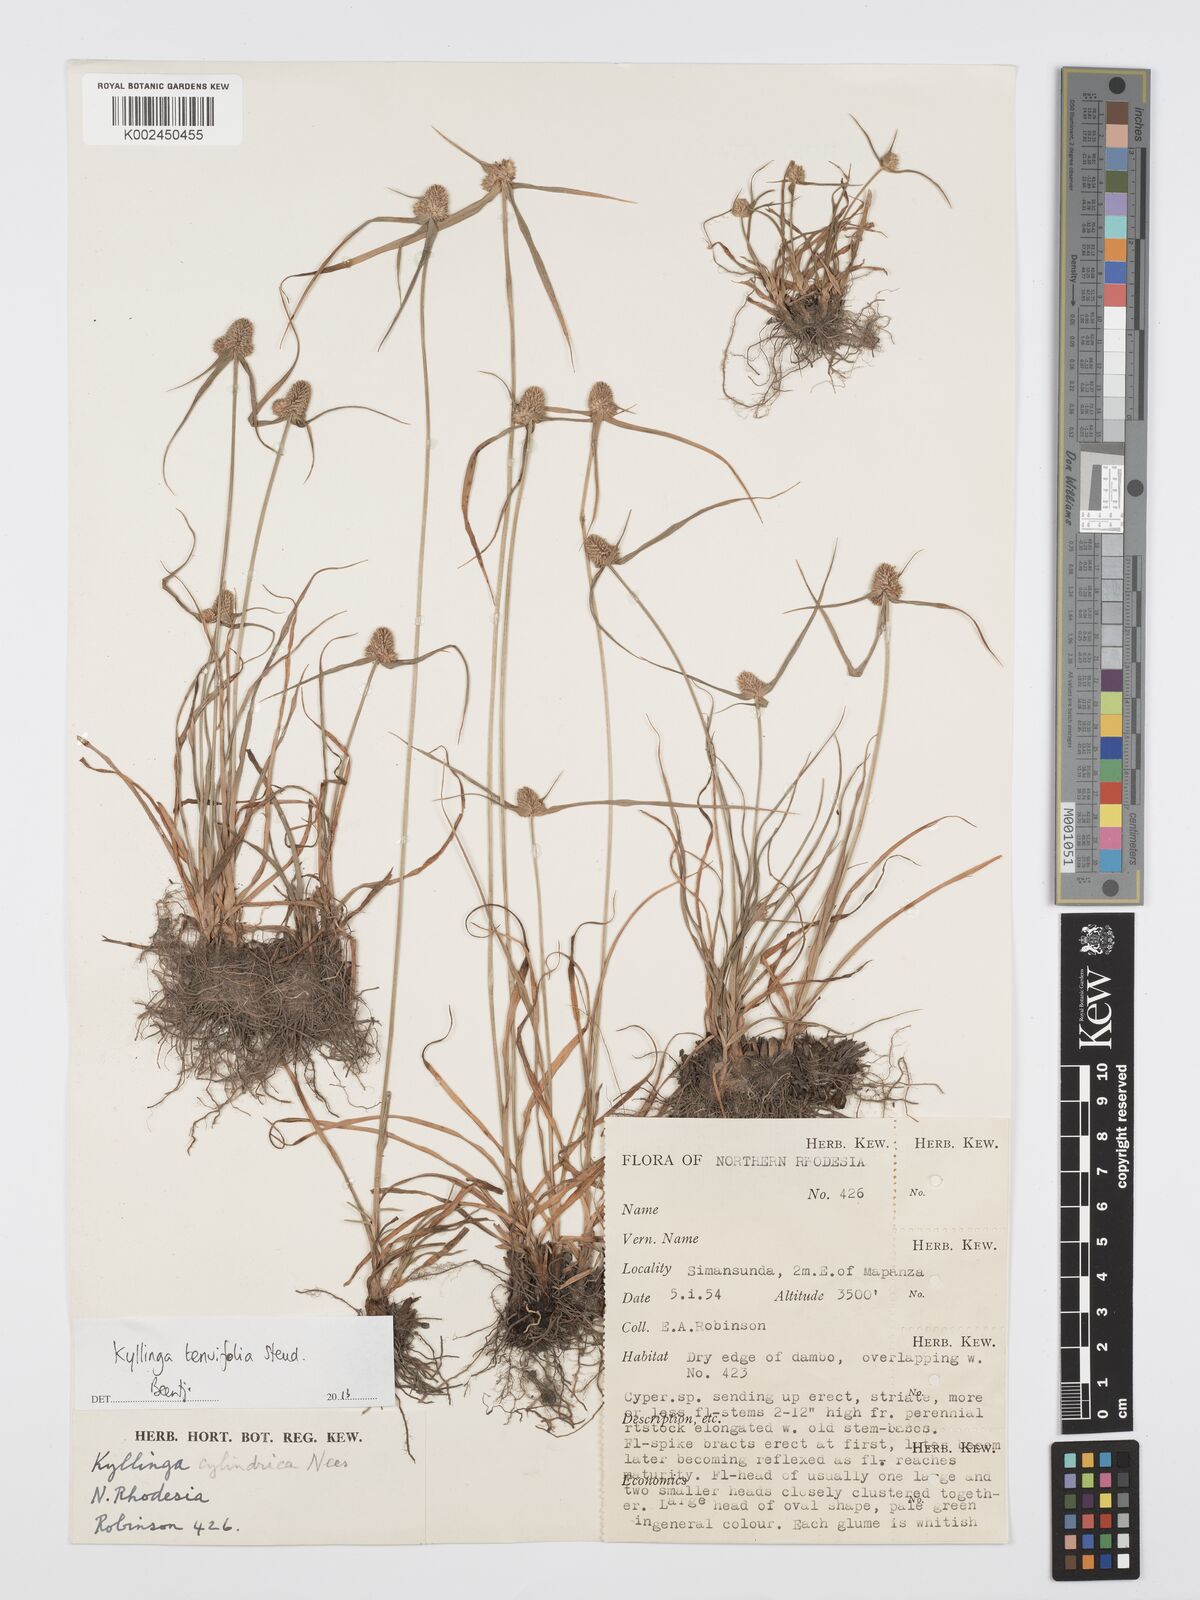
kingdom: Plantae
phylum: Tracheophyta
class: Liliopsida
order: Poales
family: Cyperaceae
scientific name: Cyperaceae
